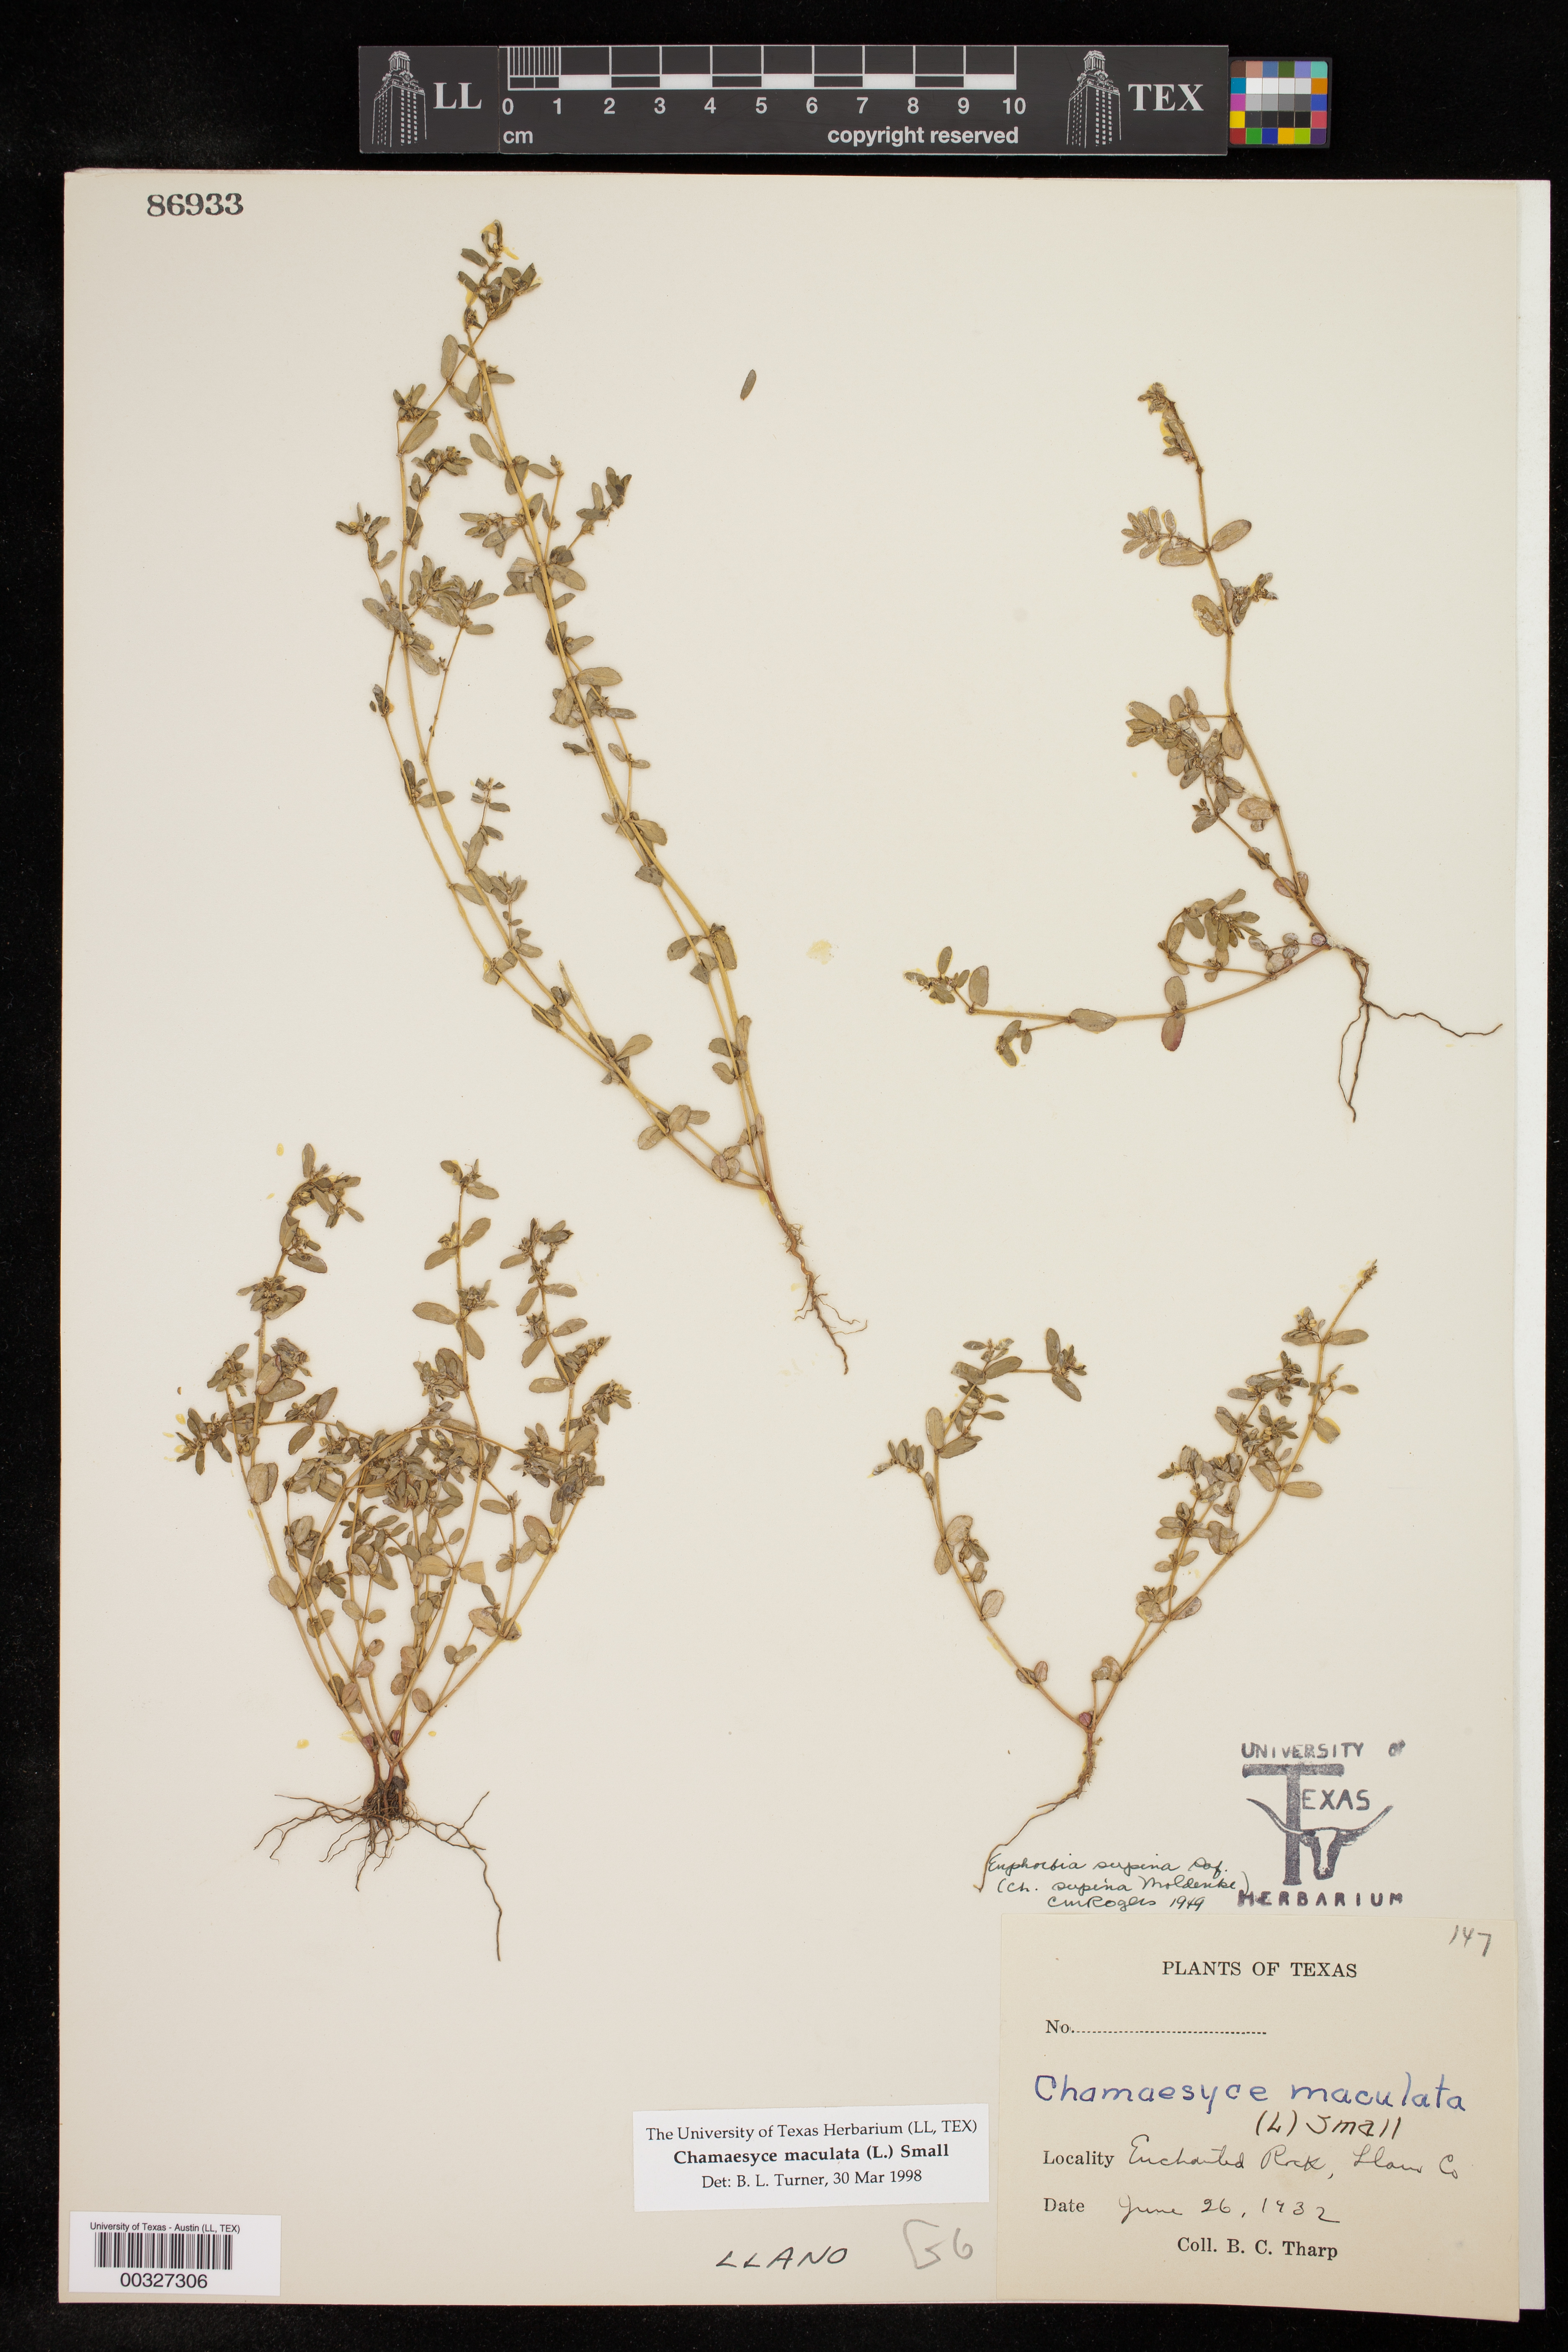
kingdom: Plantae
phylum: Tracheophyta
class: Magnoliopsida
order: Malpighiales
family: Euphorbiaceae
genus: Euphorbia
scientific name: Euphorbia maculata
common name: Spotted spurge
